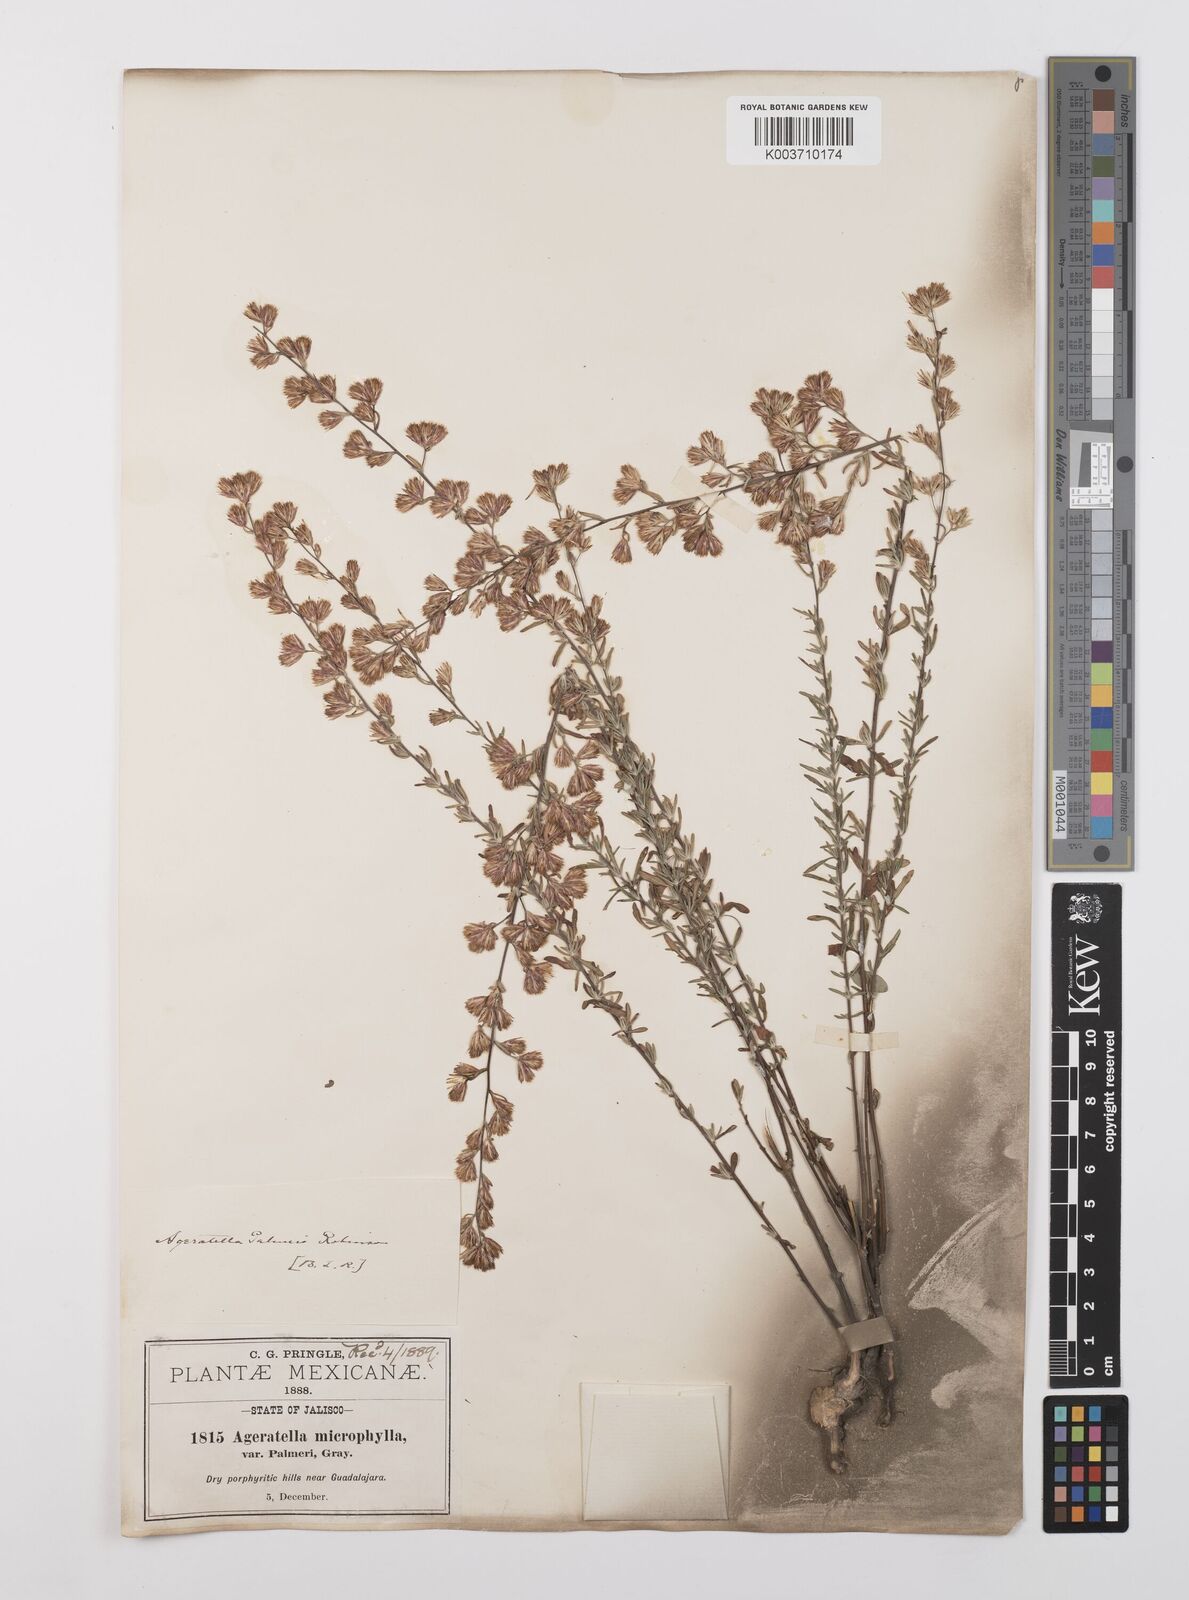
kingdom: Plantae
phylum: Tracheophyta
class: Magnoliopsida
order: Asterales
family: Asteraceae
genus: Ageratella
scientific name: Ageratella microphylla
